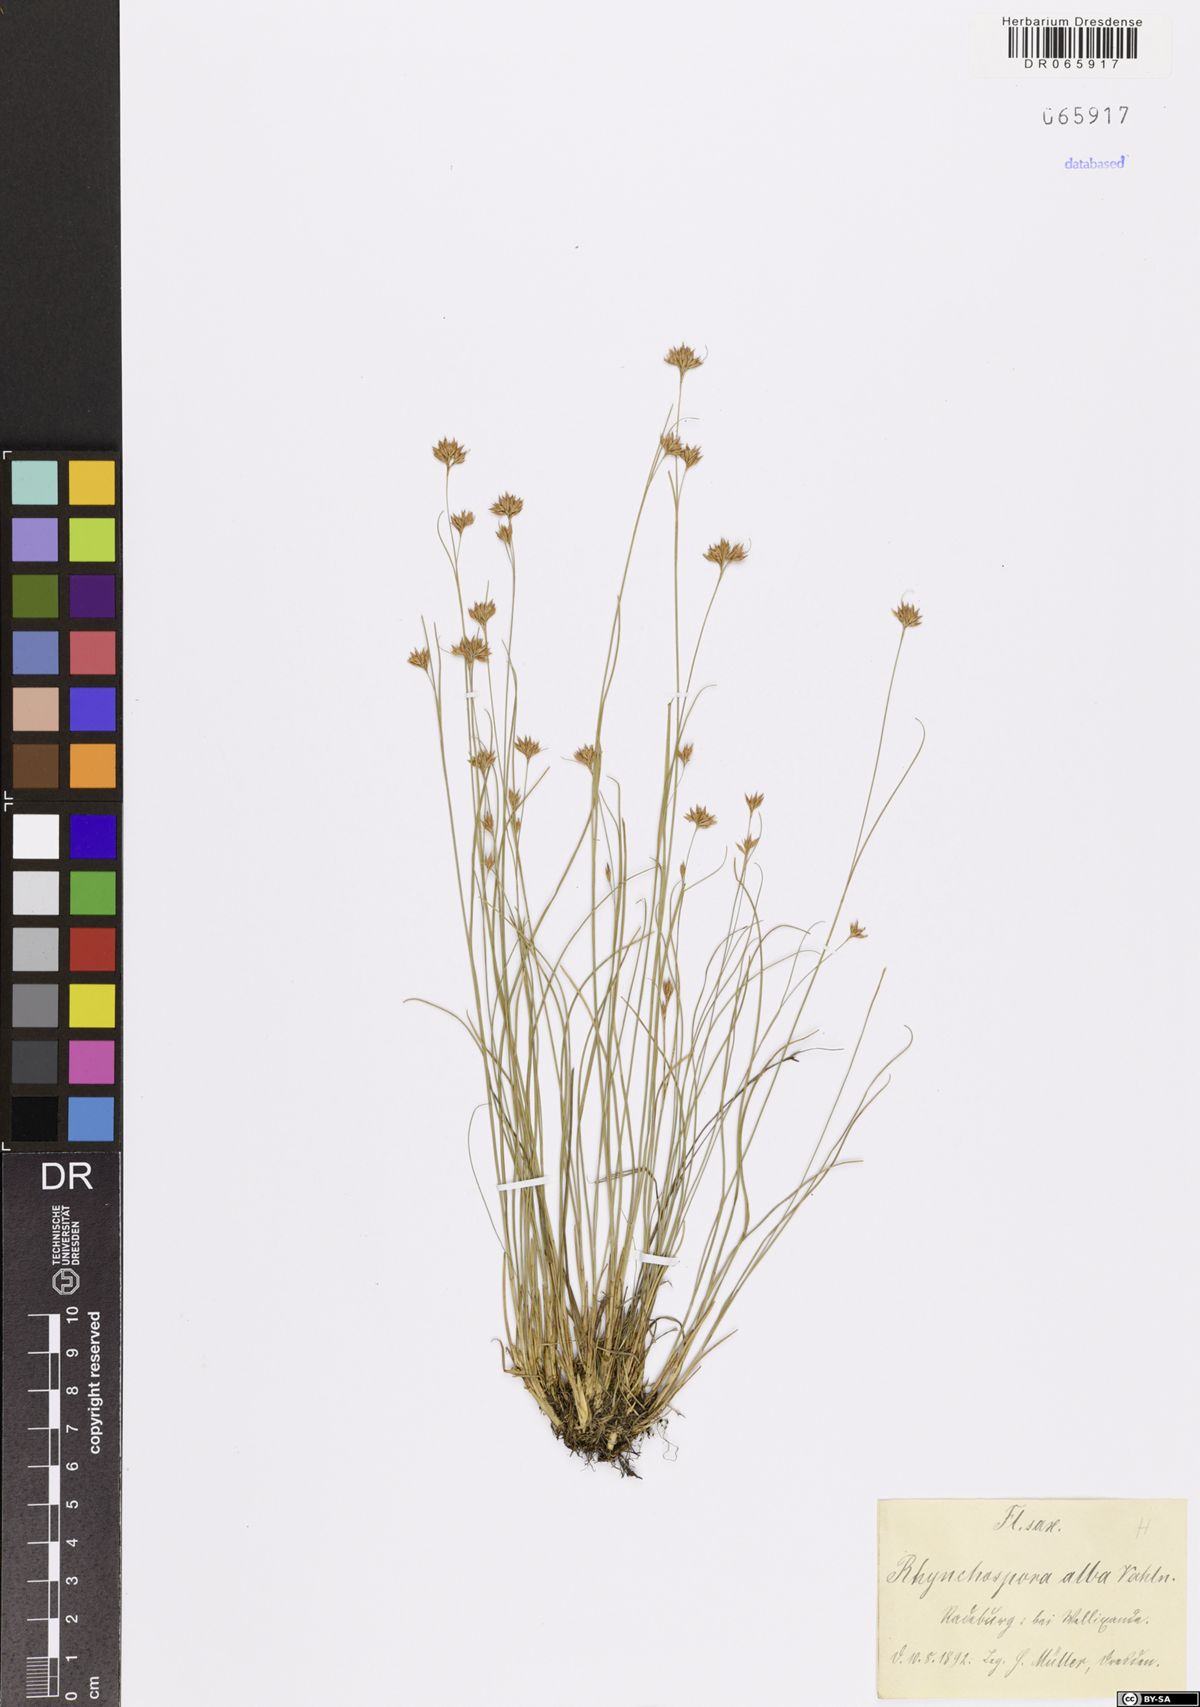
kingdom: Plantae
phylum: Tracheophyta
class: Liliopsida
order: Poales
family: Cyperaceae
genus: Rhynchospora
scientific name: Rhynchospora alba
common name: White beak-sedge
